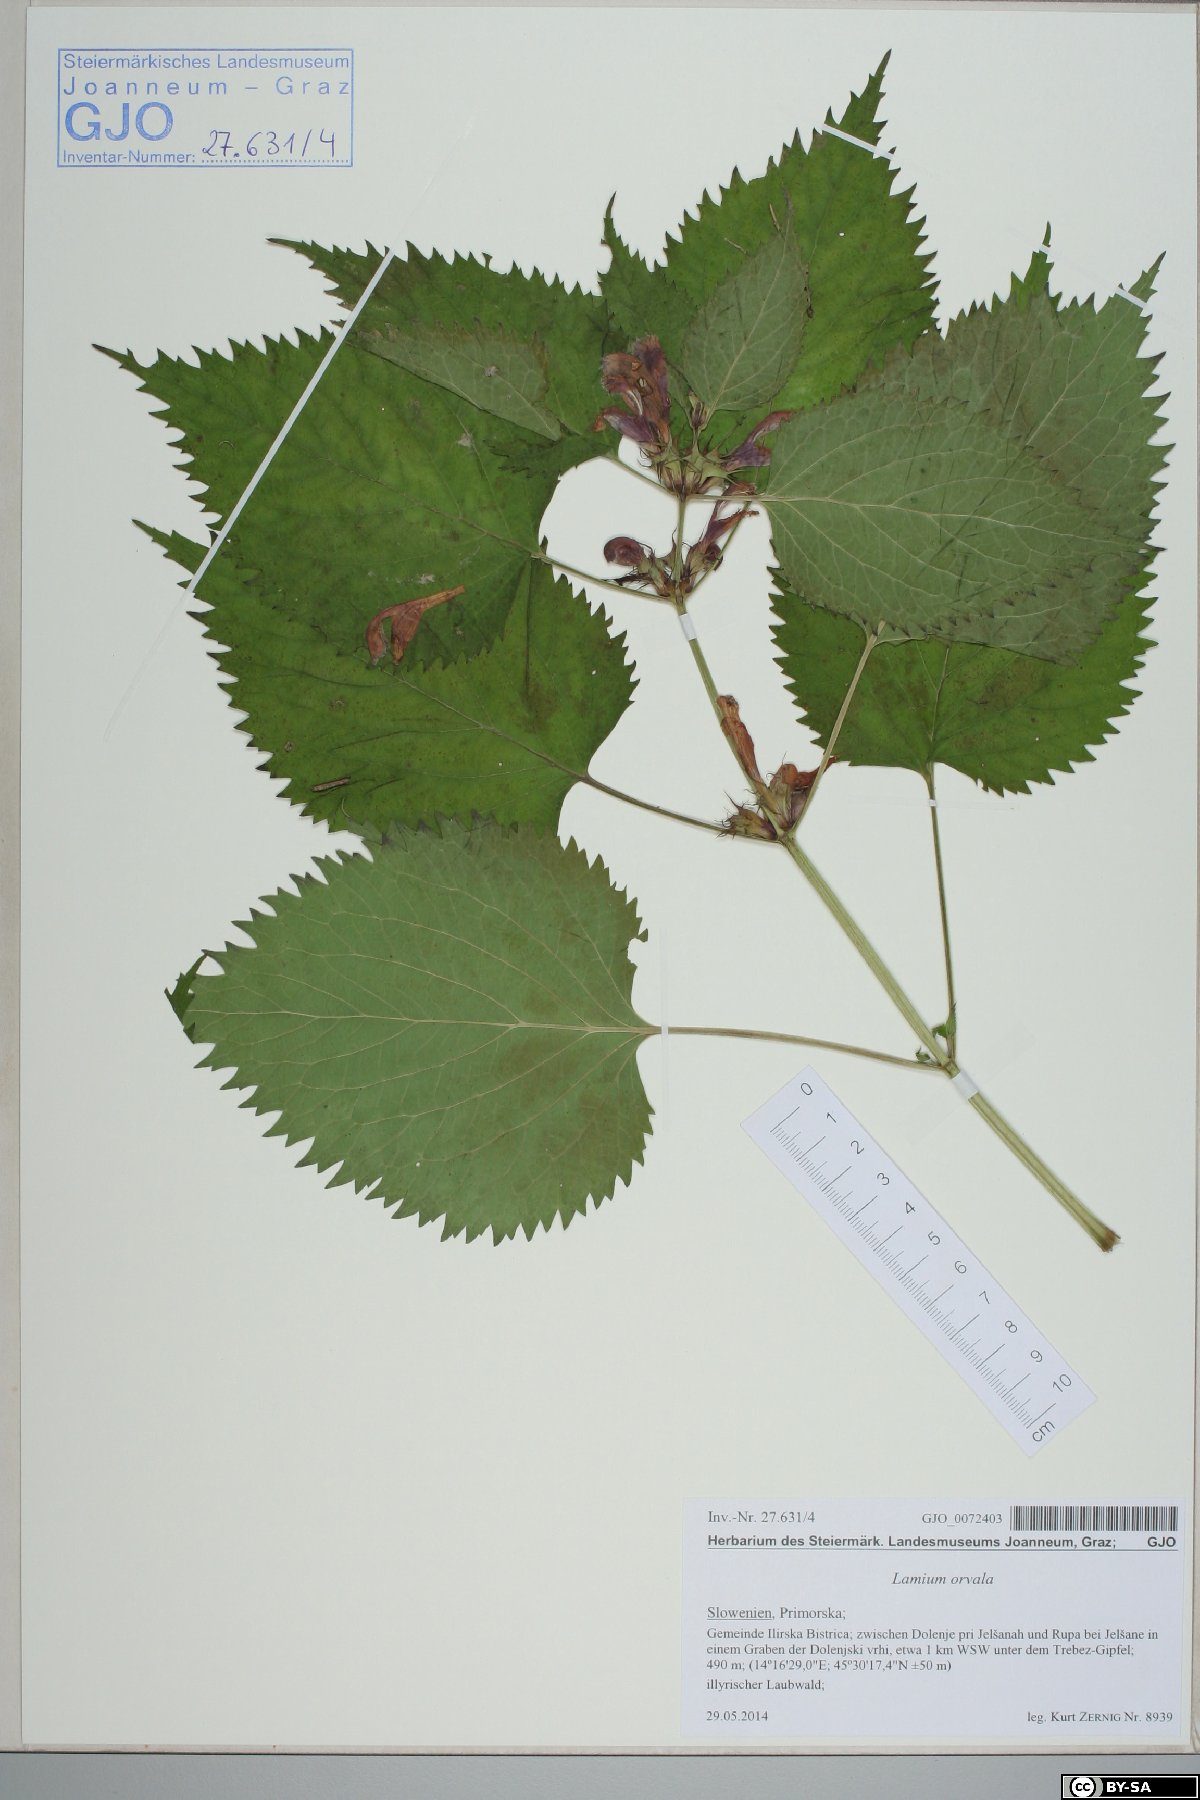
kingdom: Plantae
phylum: Tracheophyta
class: Magnoliopsida
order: Lamiales
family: Lamiaceae
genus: Lamium
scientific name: Lamium orvala
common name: Balm-leaved archangel
